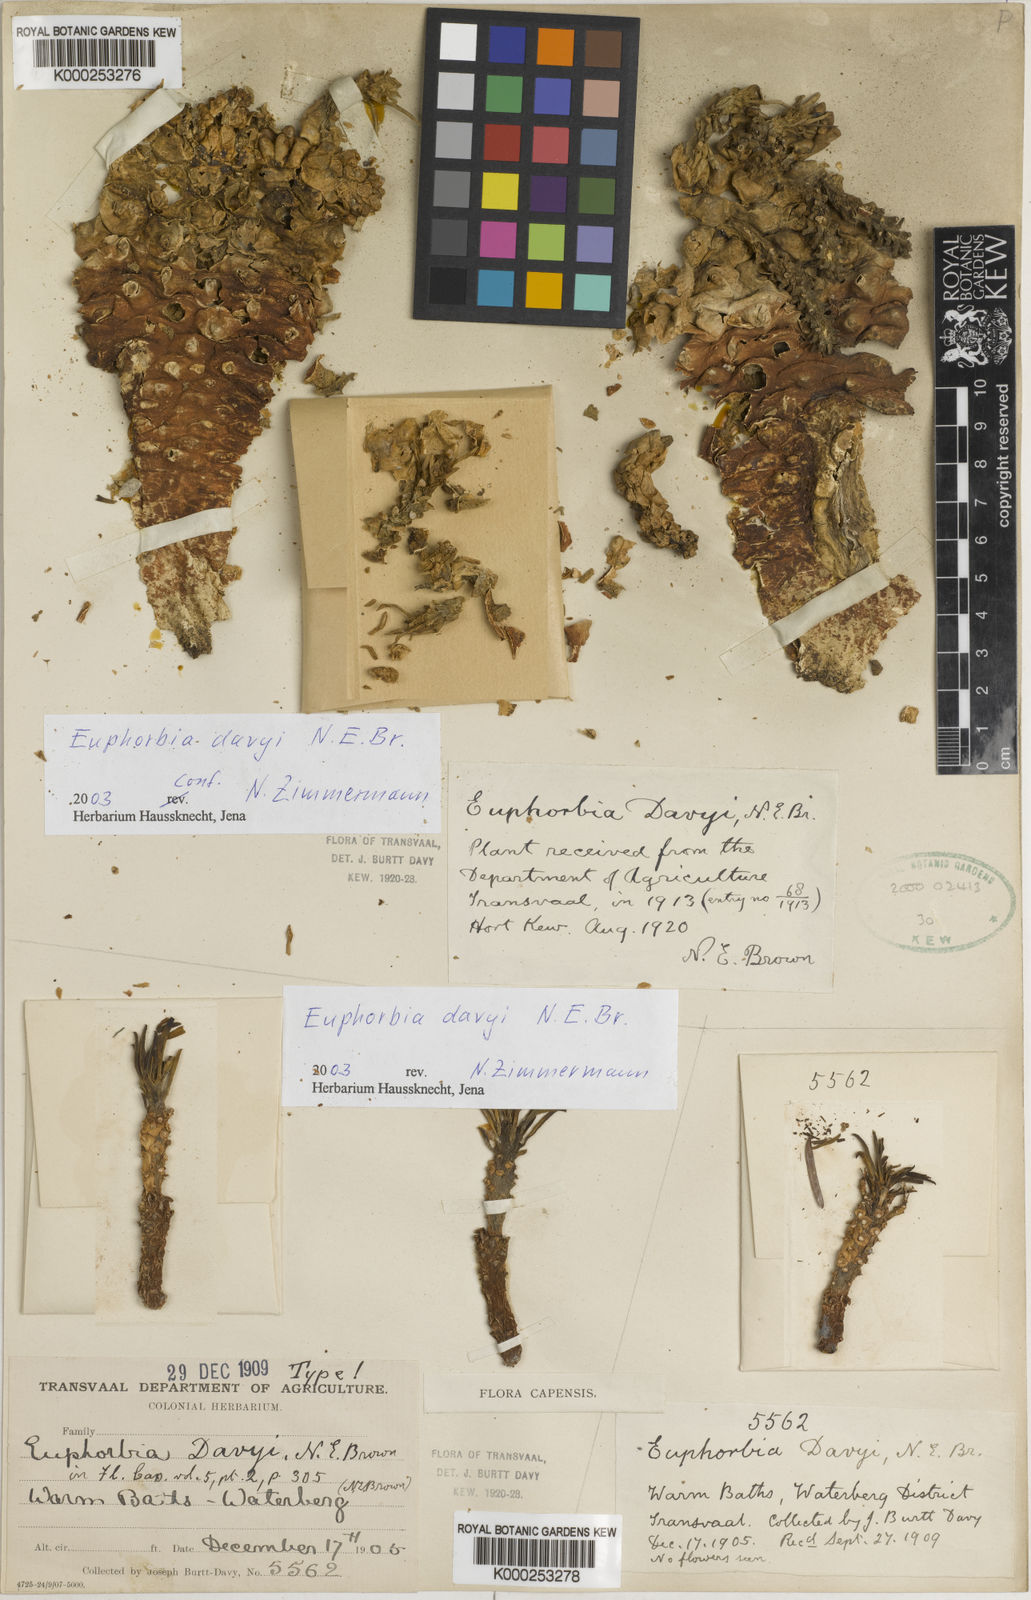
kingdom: Plantae
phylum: Tracheophyta
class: Magnoliopsida
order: Malpighiales
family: Euphorbiaceae
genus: Euphorbia
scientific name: Euphorbia davyi
